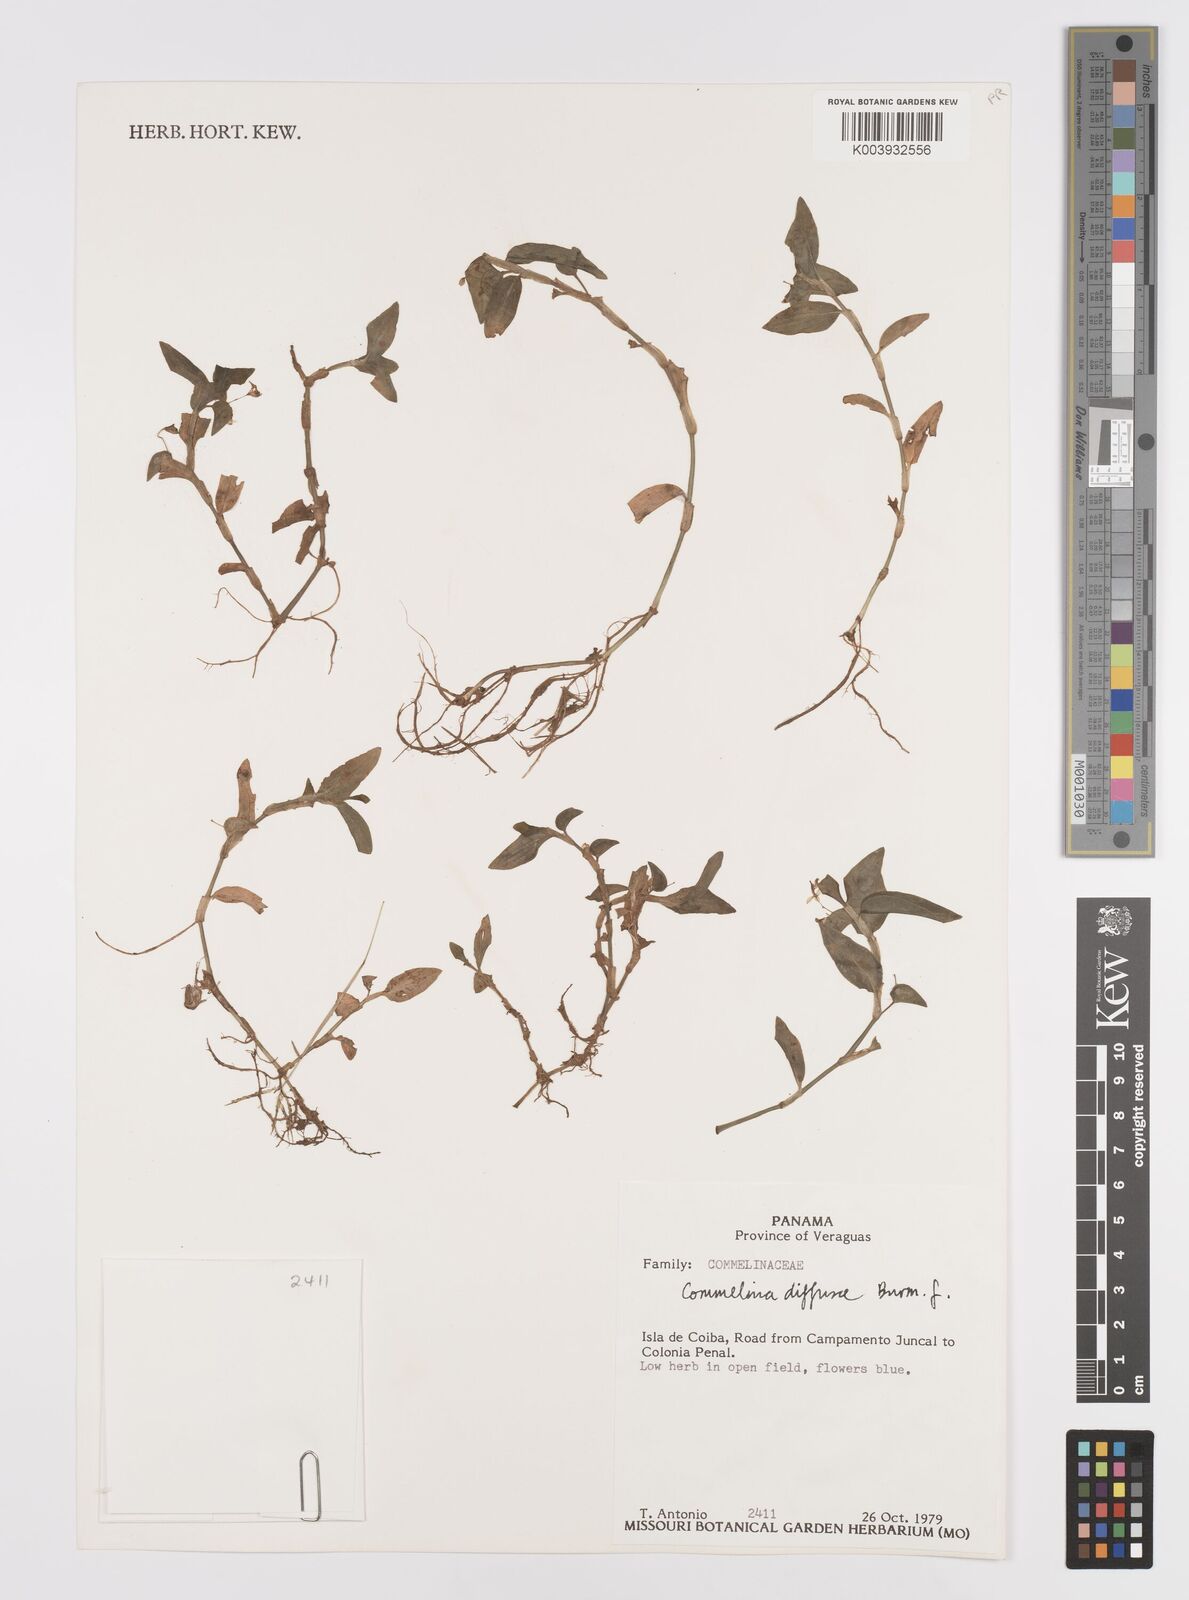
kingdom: Plantae
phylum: Tracheophyta
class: Liliopsida
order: Commelinales
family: Commelinaceae
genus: Commelina
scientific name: Commelina diffusa
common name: Climbing dayflower
